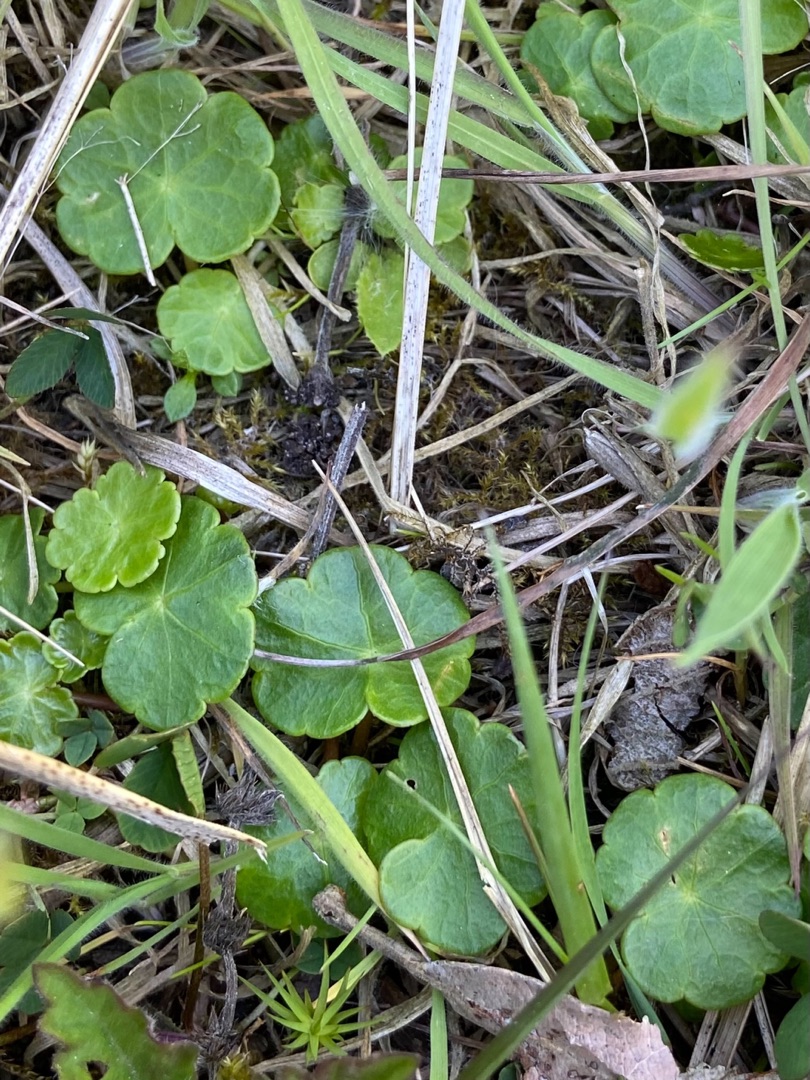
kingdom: Plantae
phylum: Tracheophyta
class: Magnoliopsida
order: Apiales
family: Araliaceae
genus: Hydrocotyle
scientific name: Hydrocotyle vulgaris
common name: Vandnavle
